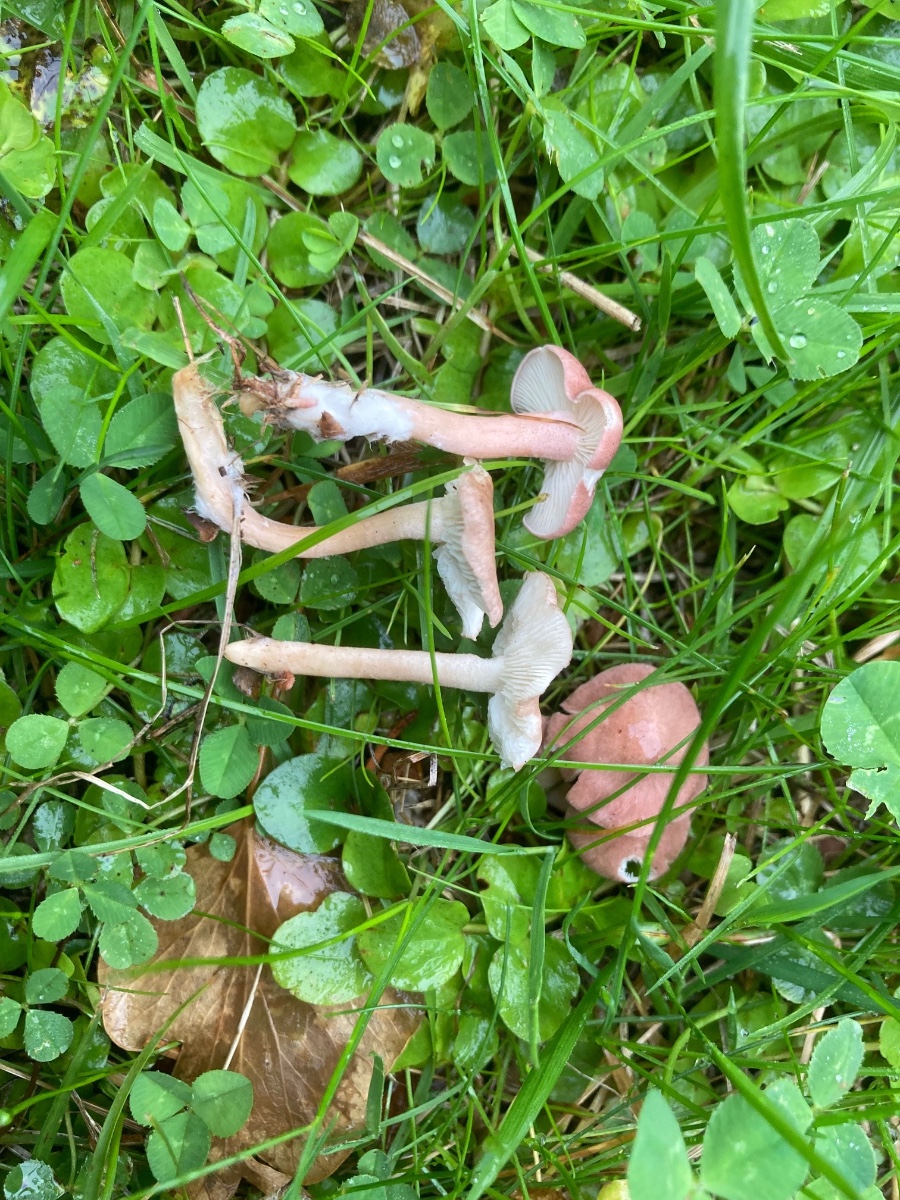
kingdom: Fungi
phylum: Basidiomycota
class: Agaricomycetes
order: Agaricales
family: Lyophyllaceae
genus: Calocybe
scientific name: Calocybe carnea
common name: rosa fagerhat
